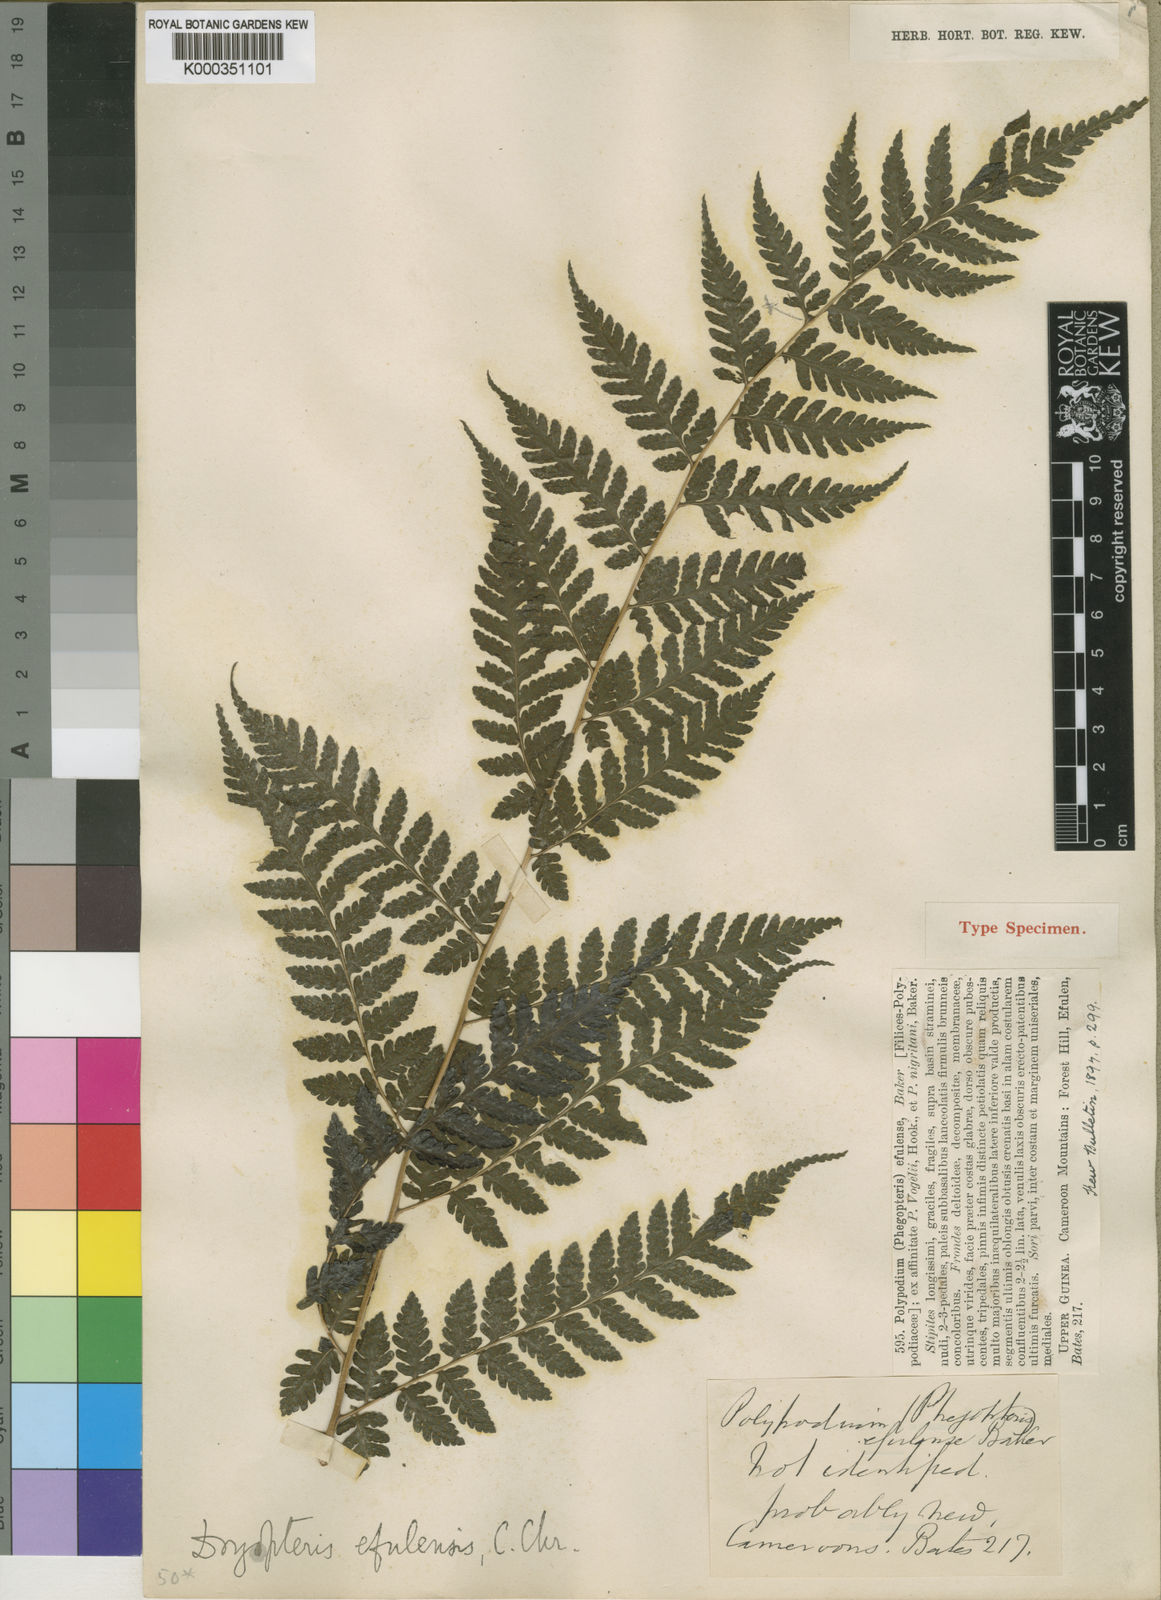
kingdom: Plantae
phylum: Tracheophyta
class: Polypodiopsida
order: Polypodiales
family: Dryopteridaceae
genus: Parapolystichum
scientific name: Parapolystichum currorii
